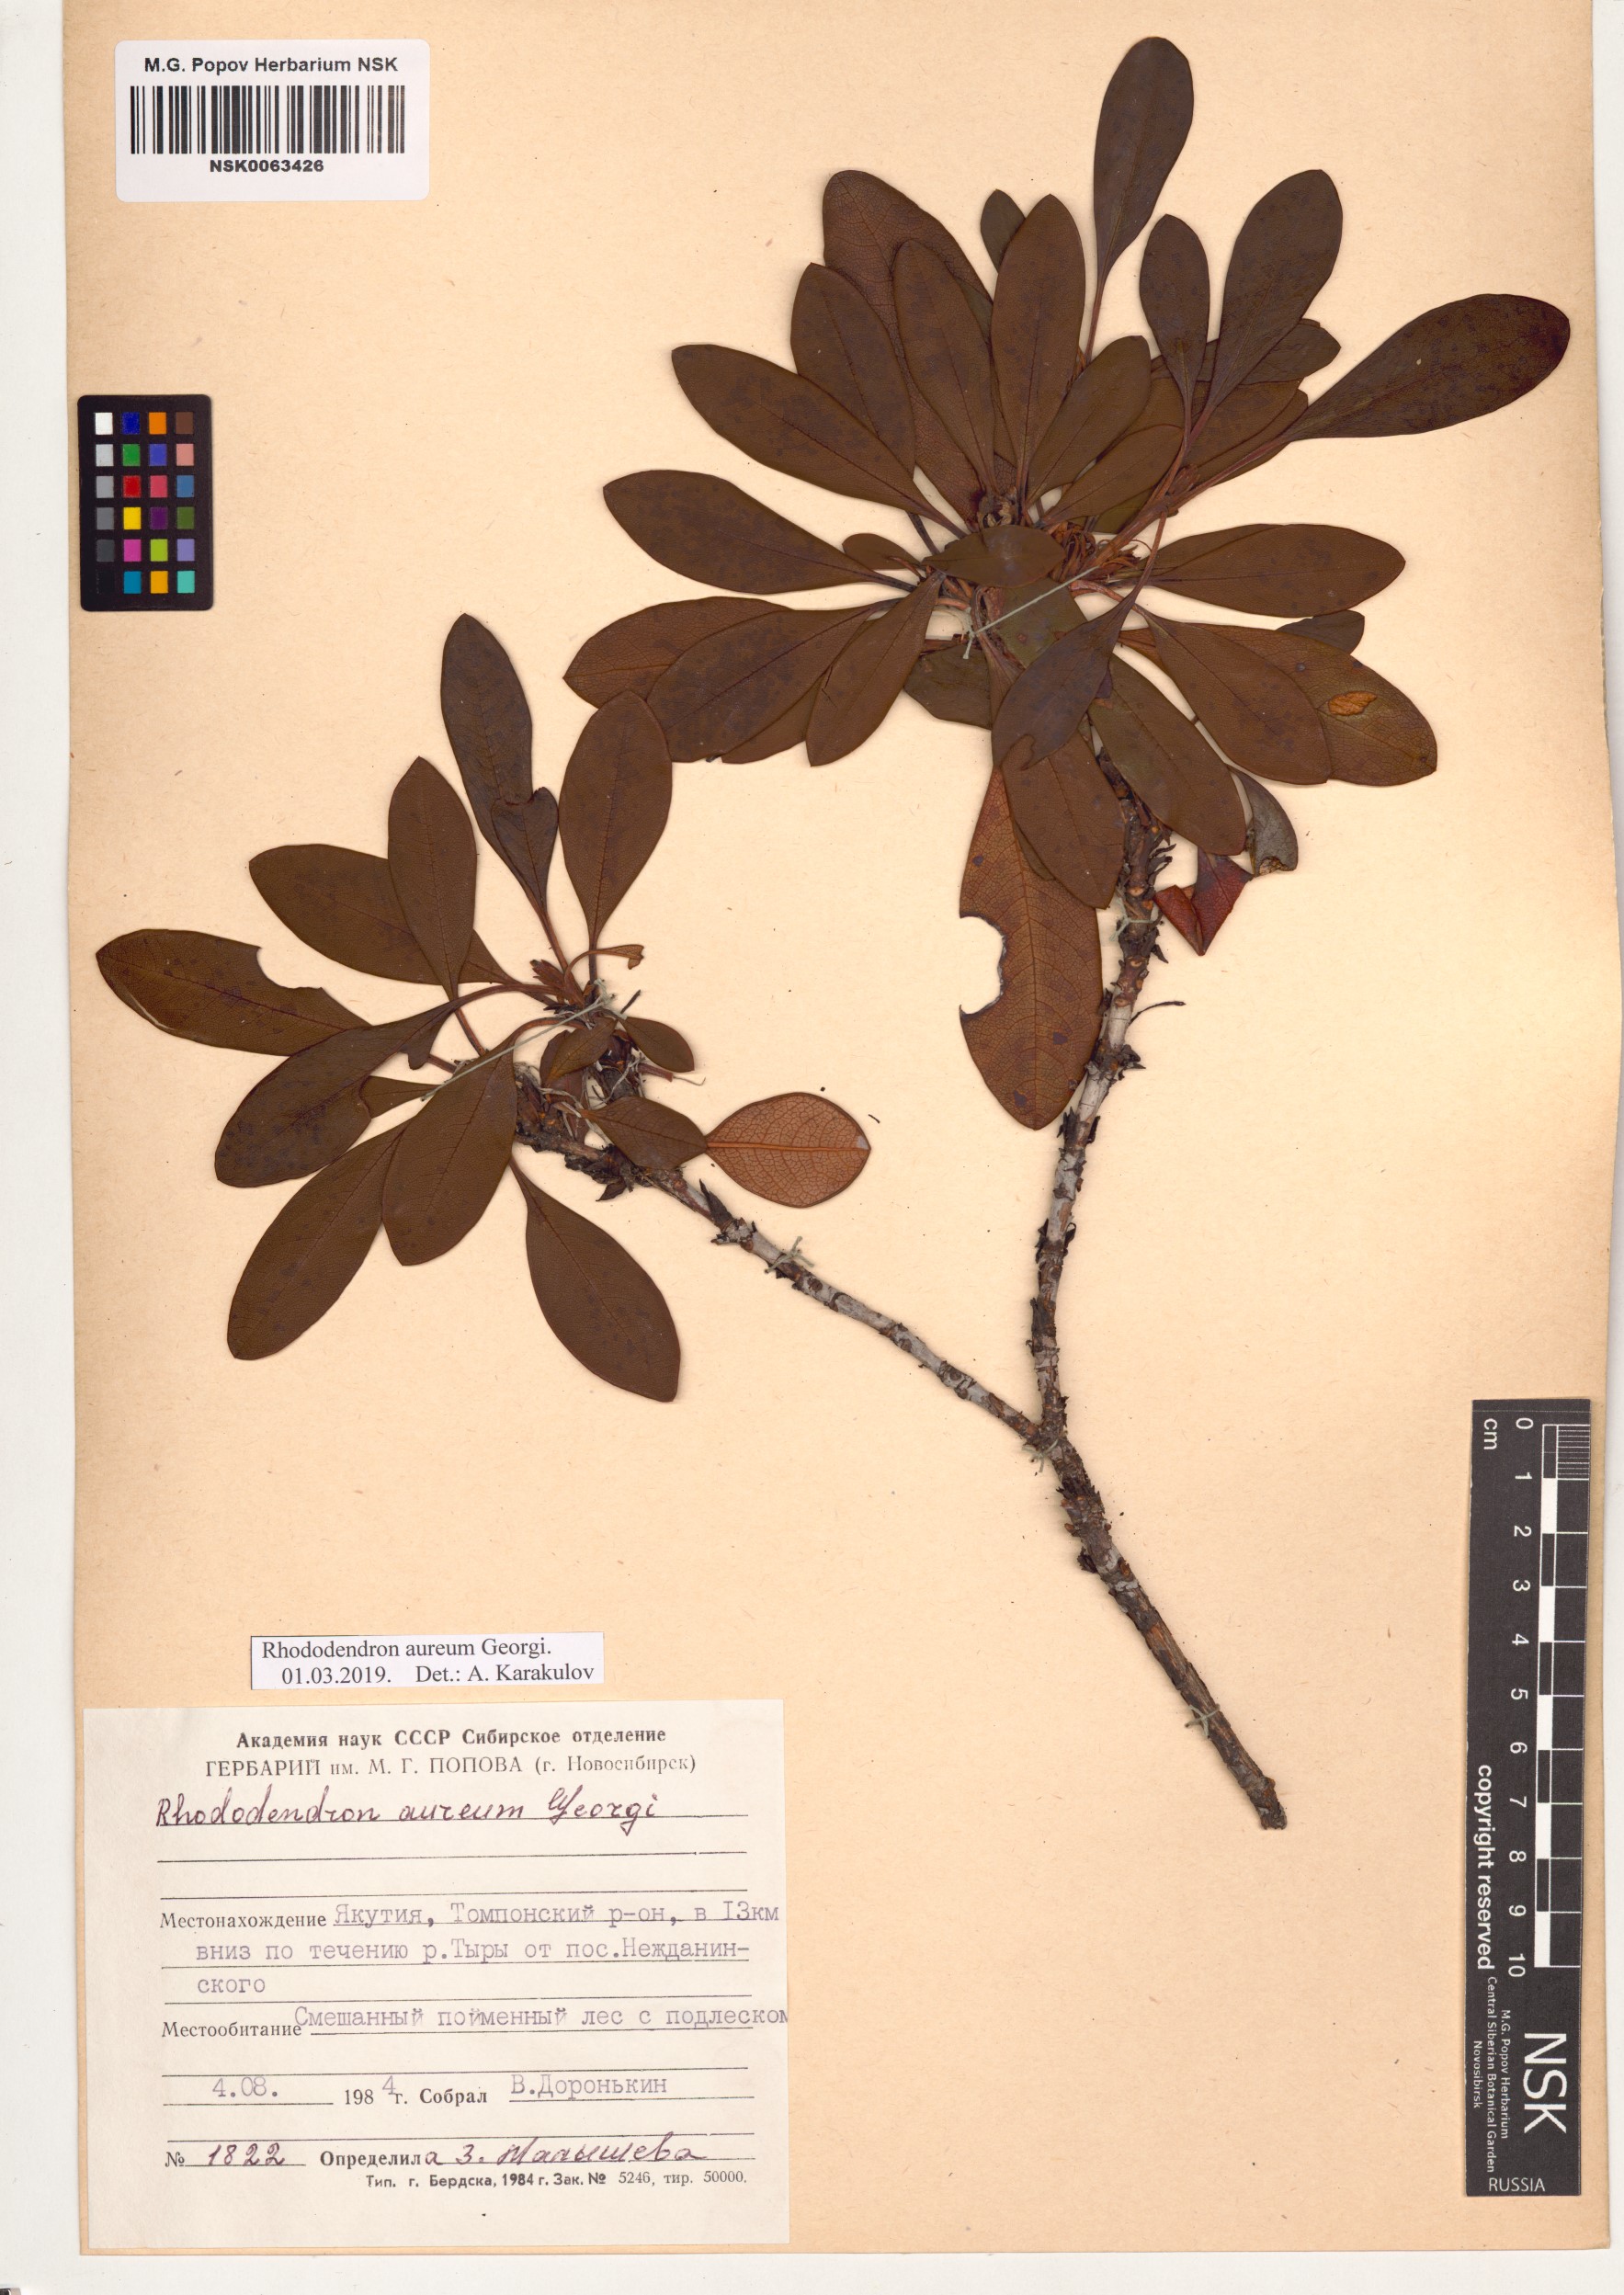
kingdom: Plantae
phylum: Tracheophyta
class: Magnoliopsida
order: Ericales
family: Ericaceae
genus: Rhododendron
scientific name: Rhododendron aureum
